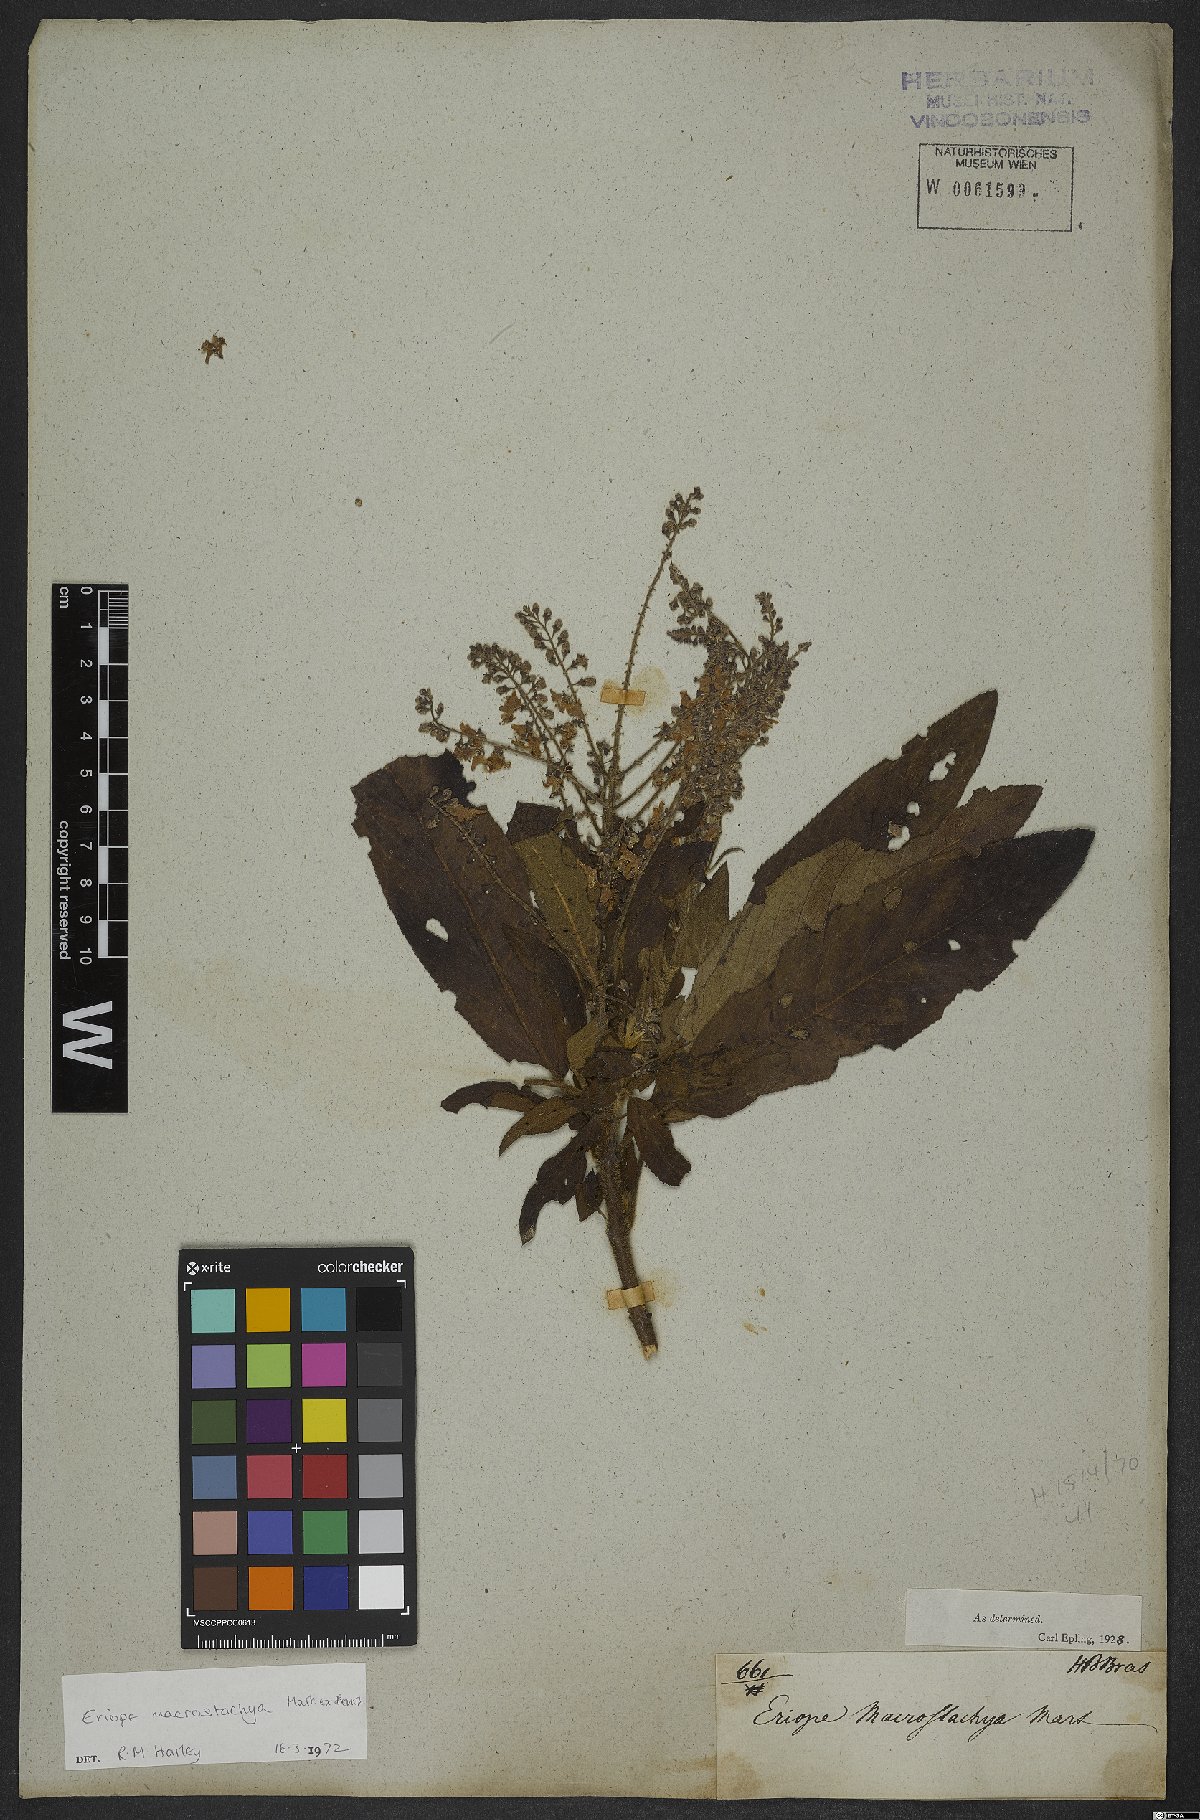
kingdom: Plantae
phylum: Tracheophyta
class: Magnoliopsida
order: Lamiales
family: Lamiaceae
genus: Eriope
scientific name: Eriope macrostachya
